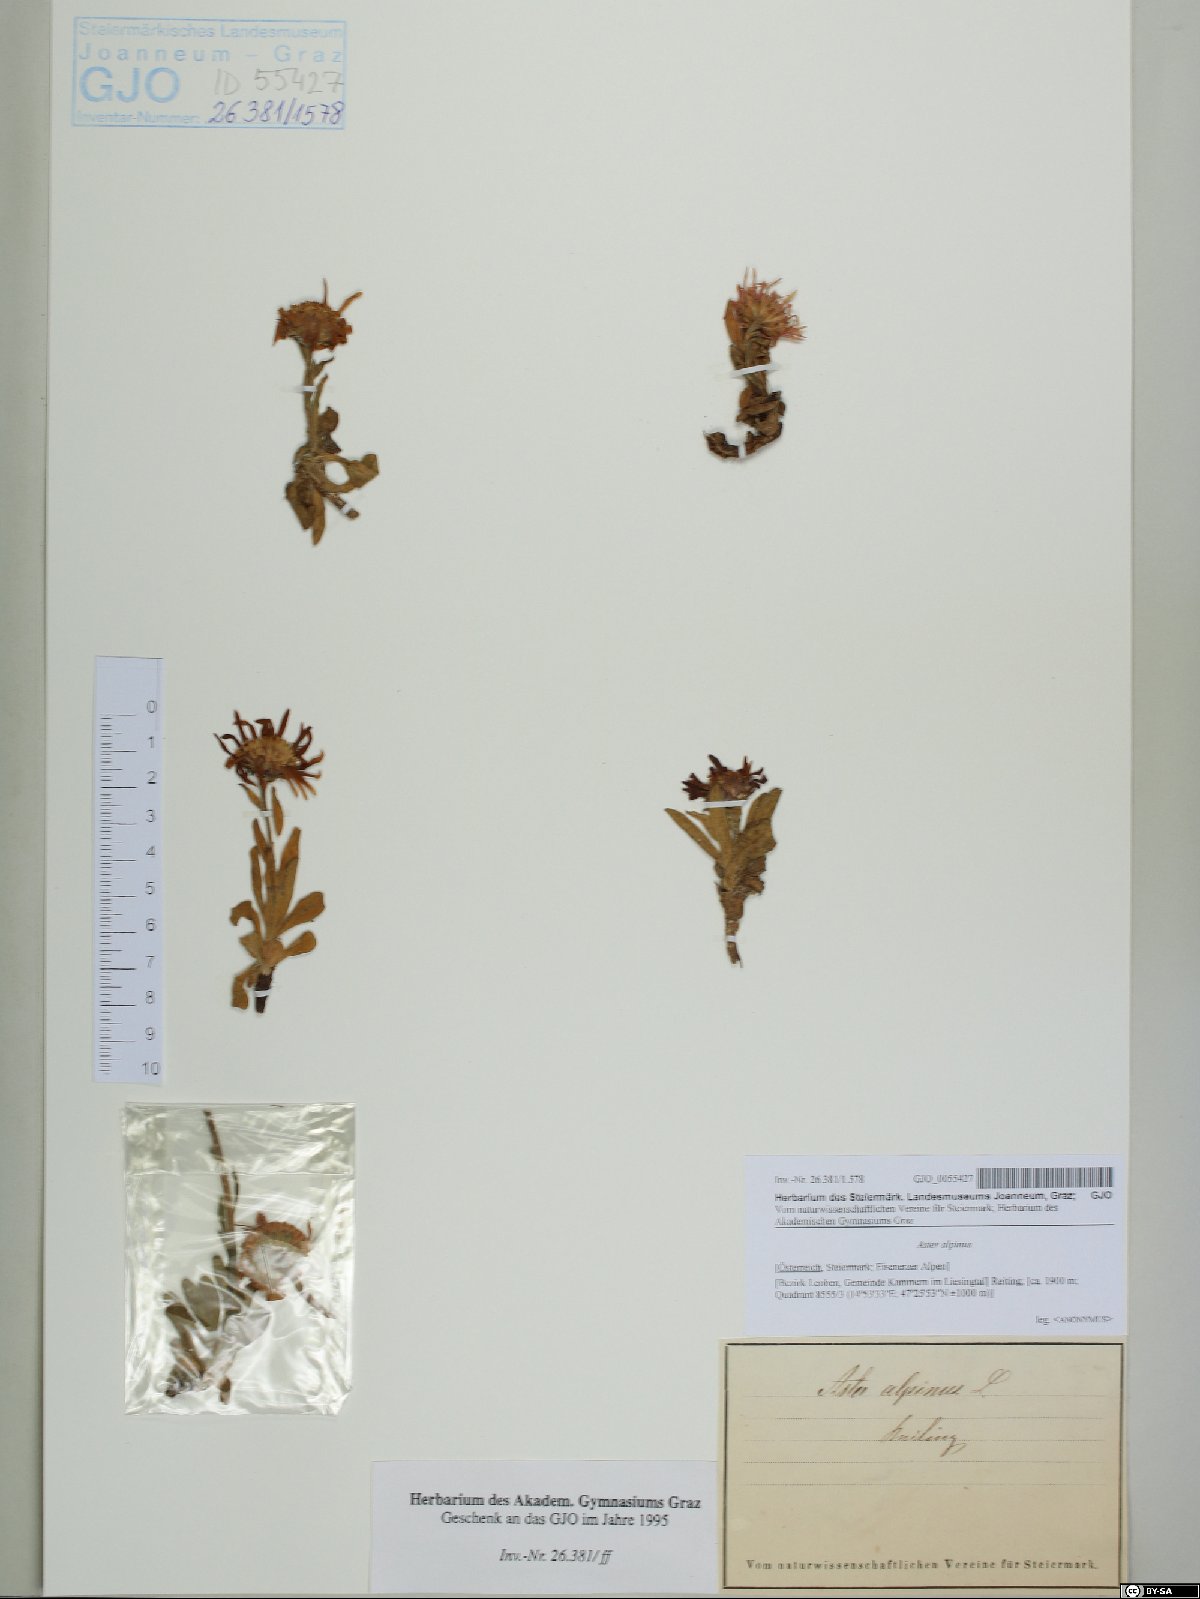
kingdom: Plantae
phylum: Tracheophyta
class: Magnoliopsida
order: Asterales
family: Asteraceae
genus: Aster
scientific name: Aster alpinus
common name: Alpine aster
